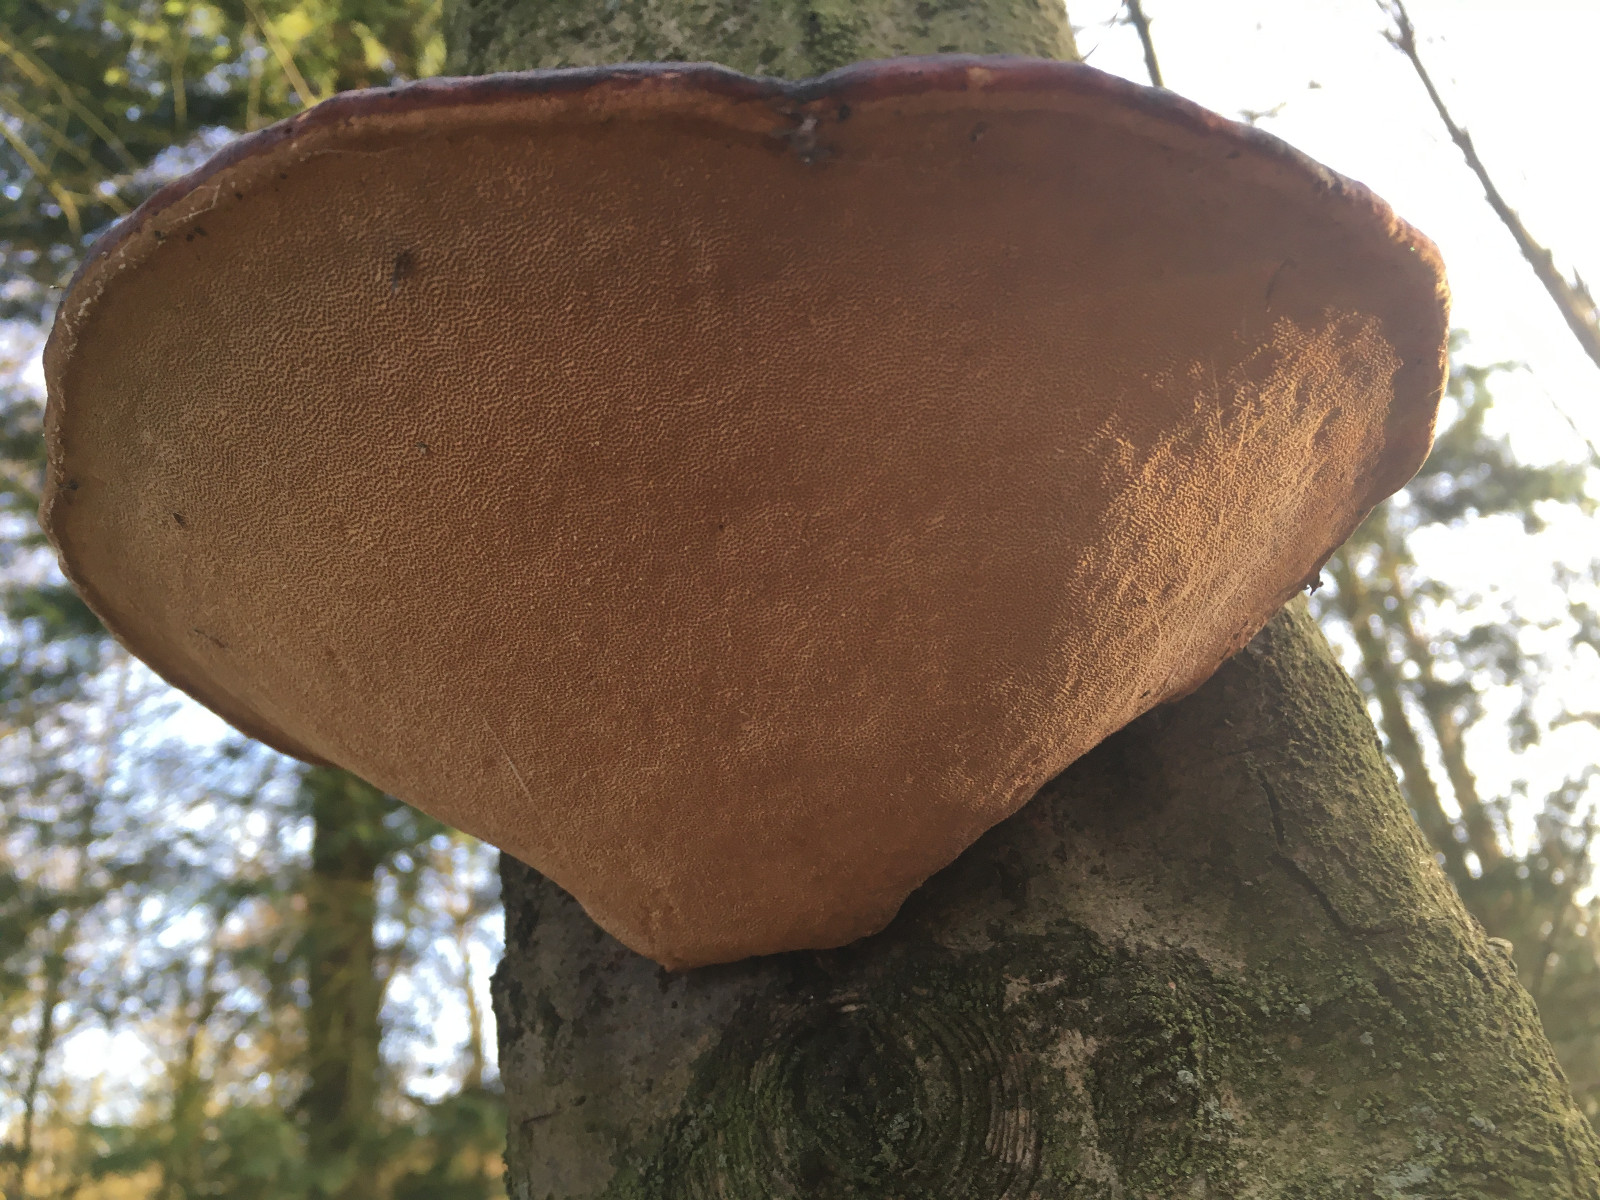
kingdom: Fungi
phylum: Basidiomycota
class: Agaricomycetes
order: Polyporales
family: Fomitopsidaceae
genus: Fomitopsis
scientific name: Fomitopsis pinicola
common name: randbæltet hovporesvamp
